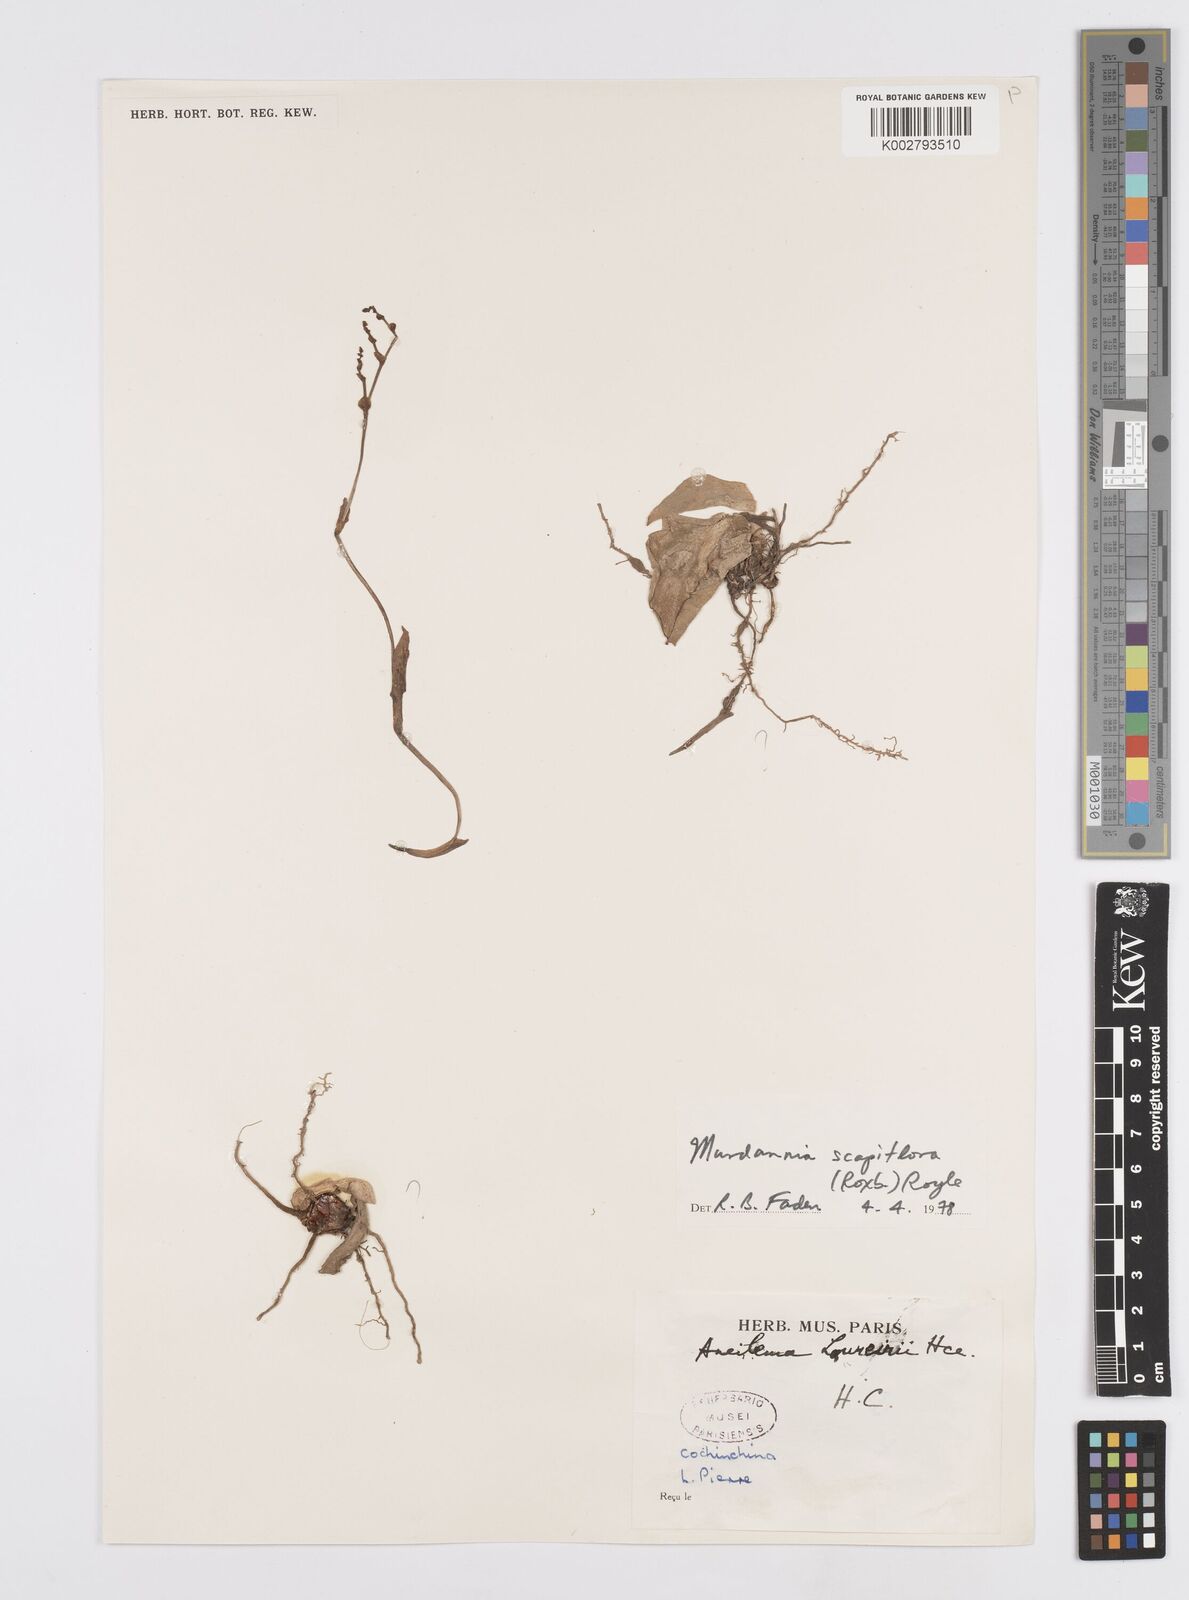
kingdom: Plantae
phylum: Tracheophyta
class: Liliopsida
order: Commelinales
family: Commelinaceae
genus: Murdannia
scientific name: Murdannia edulis
